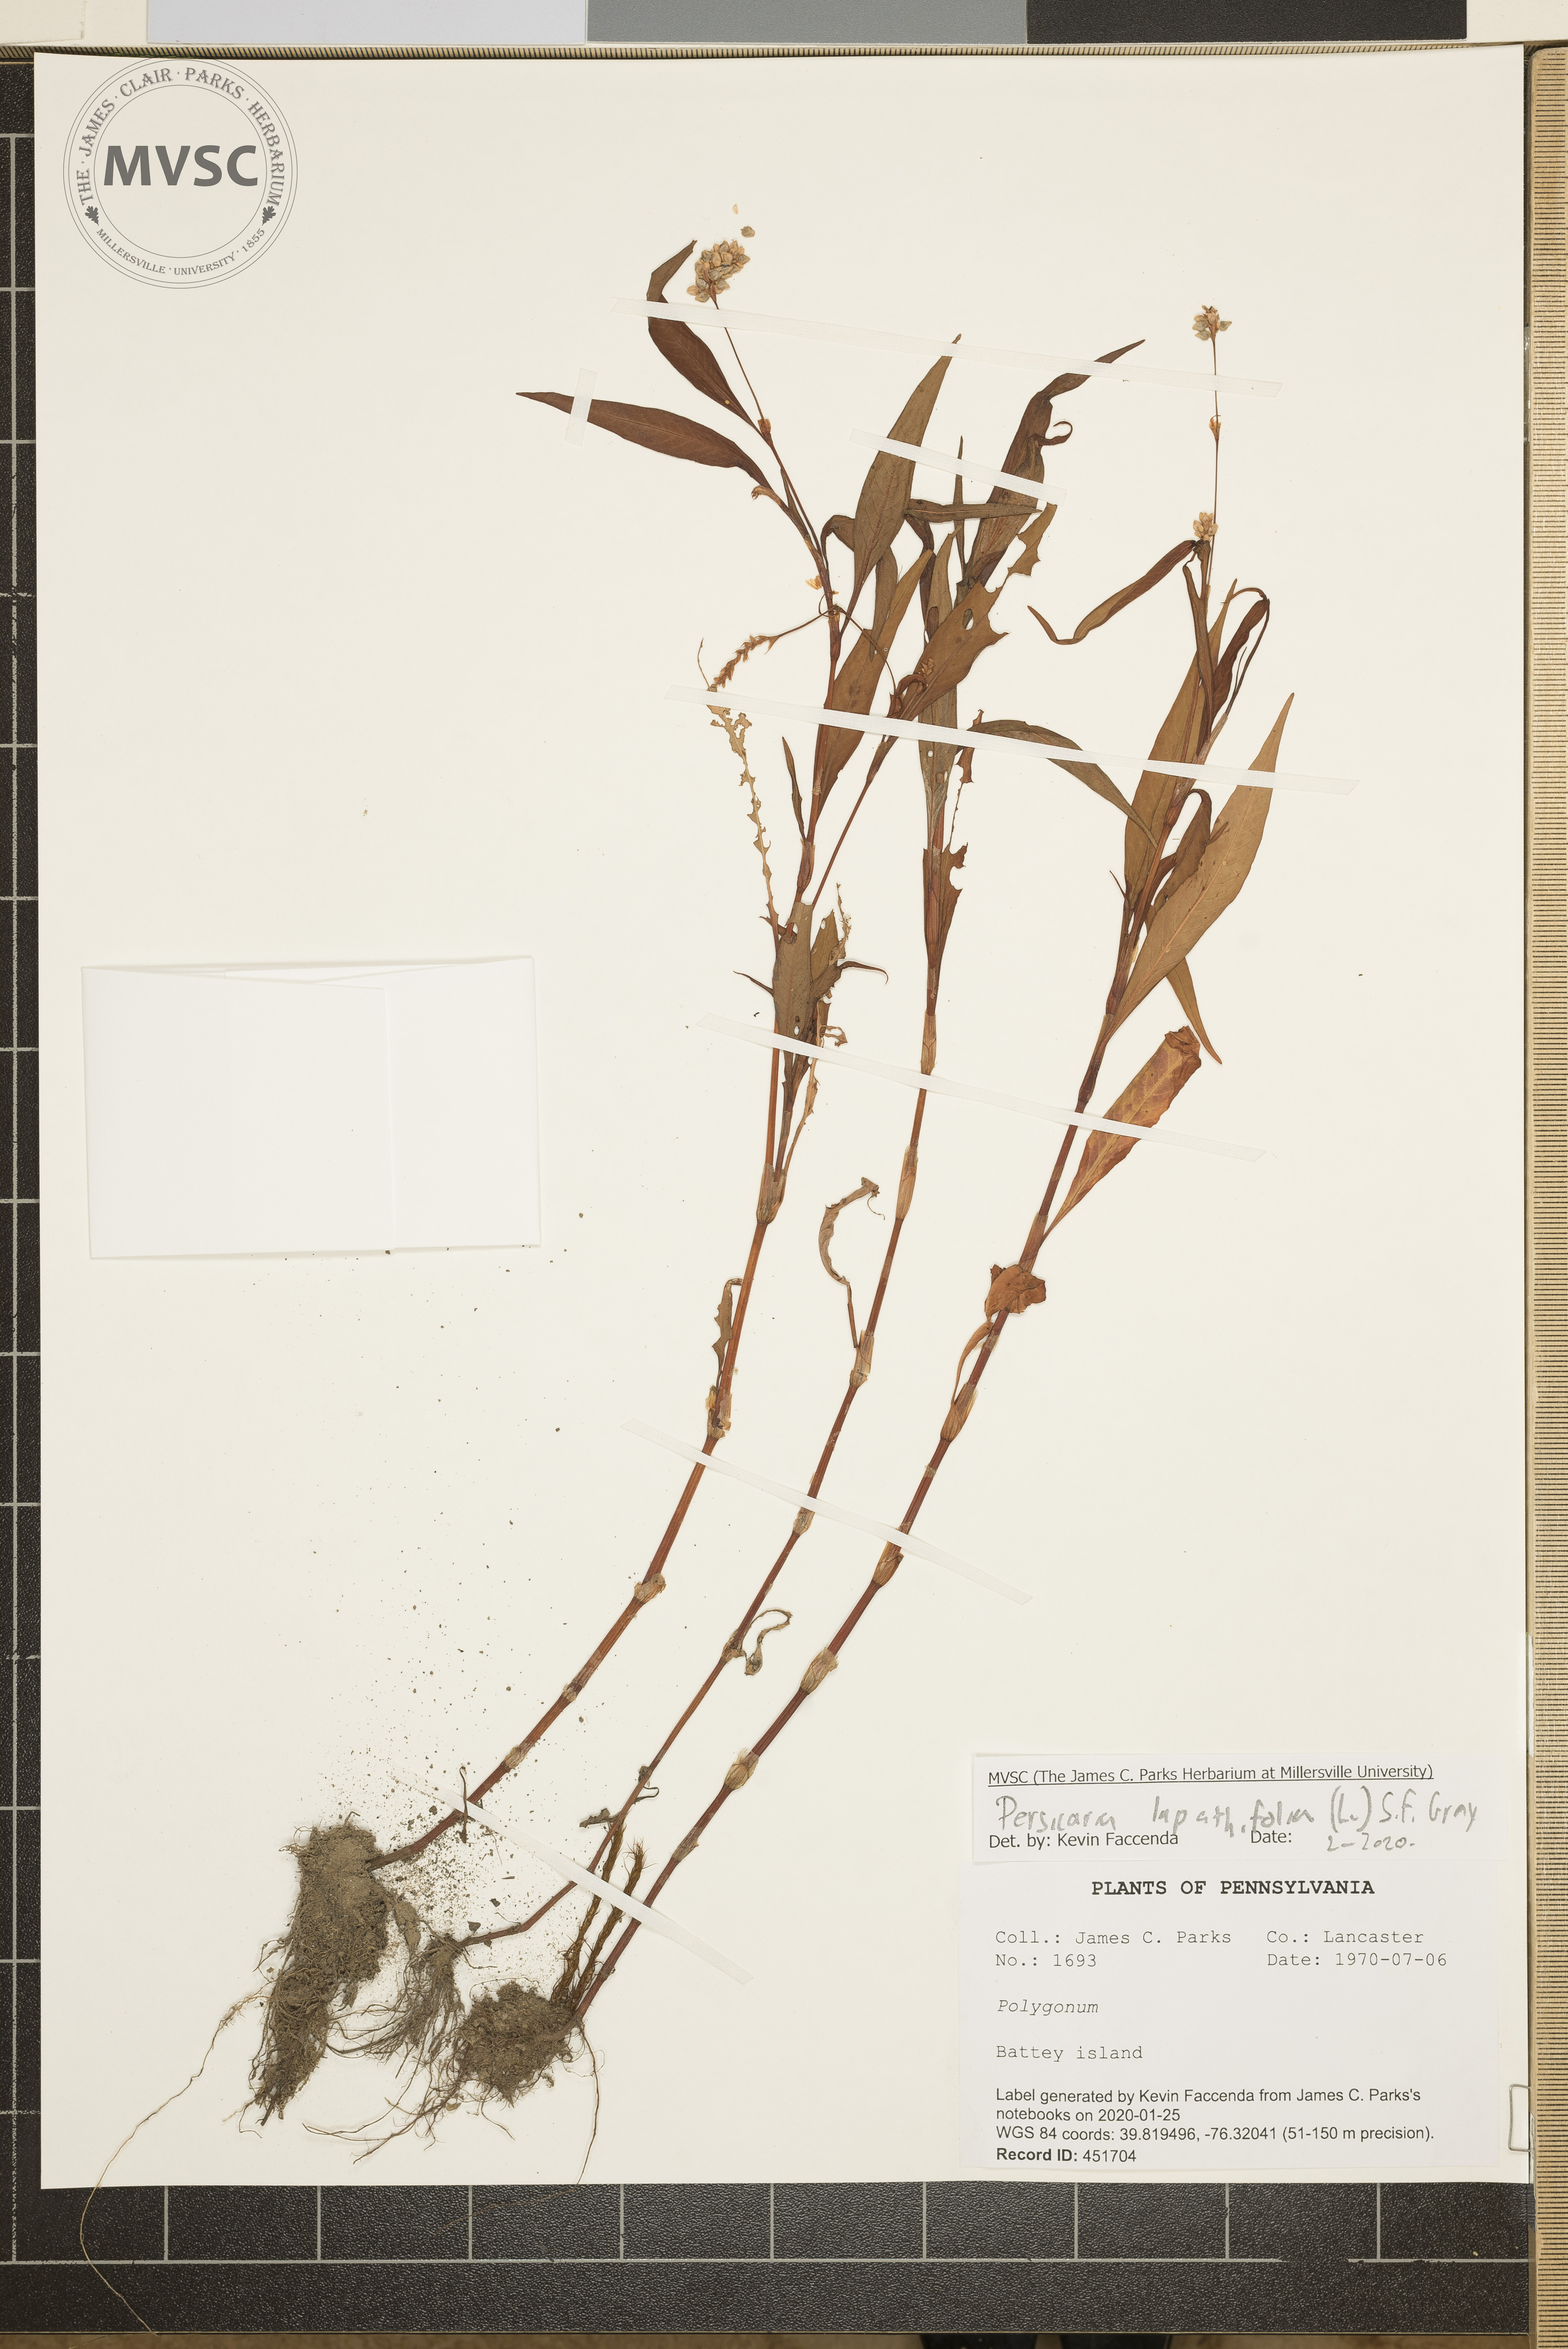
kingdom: Plantae
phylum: Tracheophyta
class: Magnoliopsida
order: Caryophyllales
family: Polygonaceae
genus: Persicaria
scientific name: Persicaria lapathifolia
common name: Curlytop knotweed
